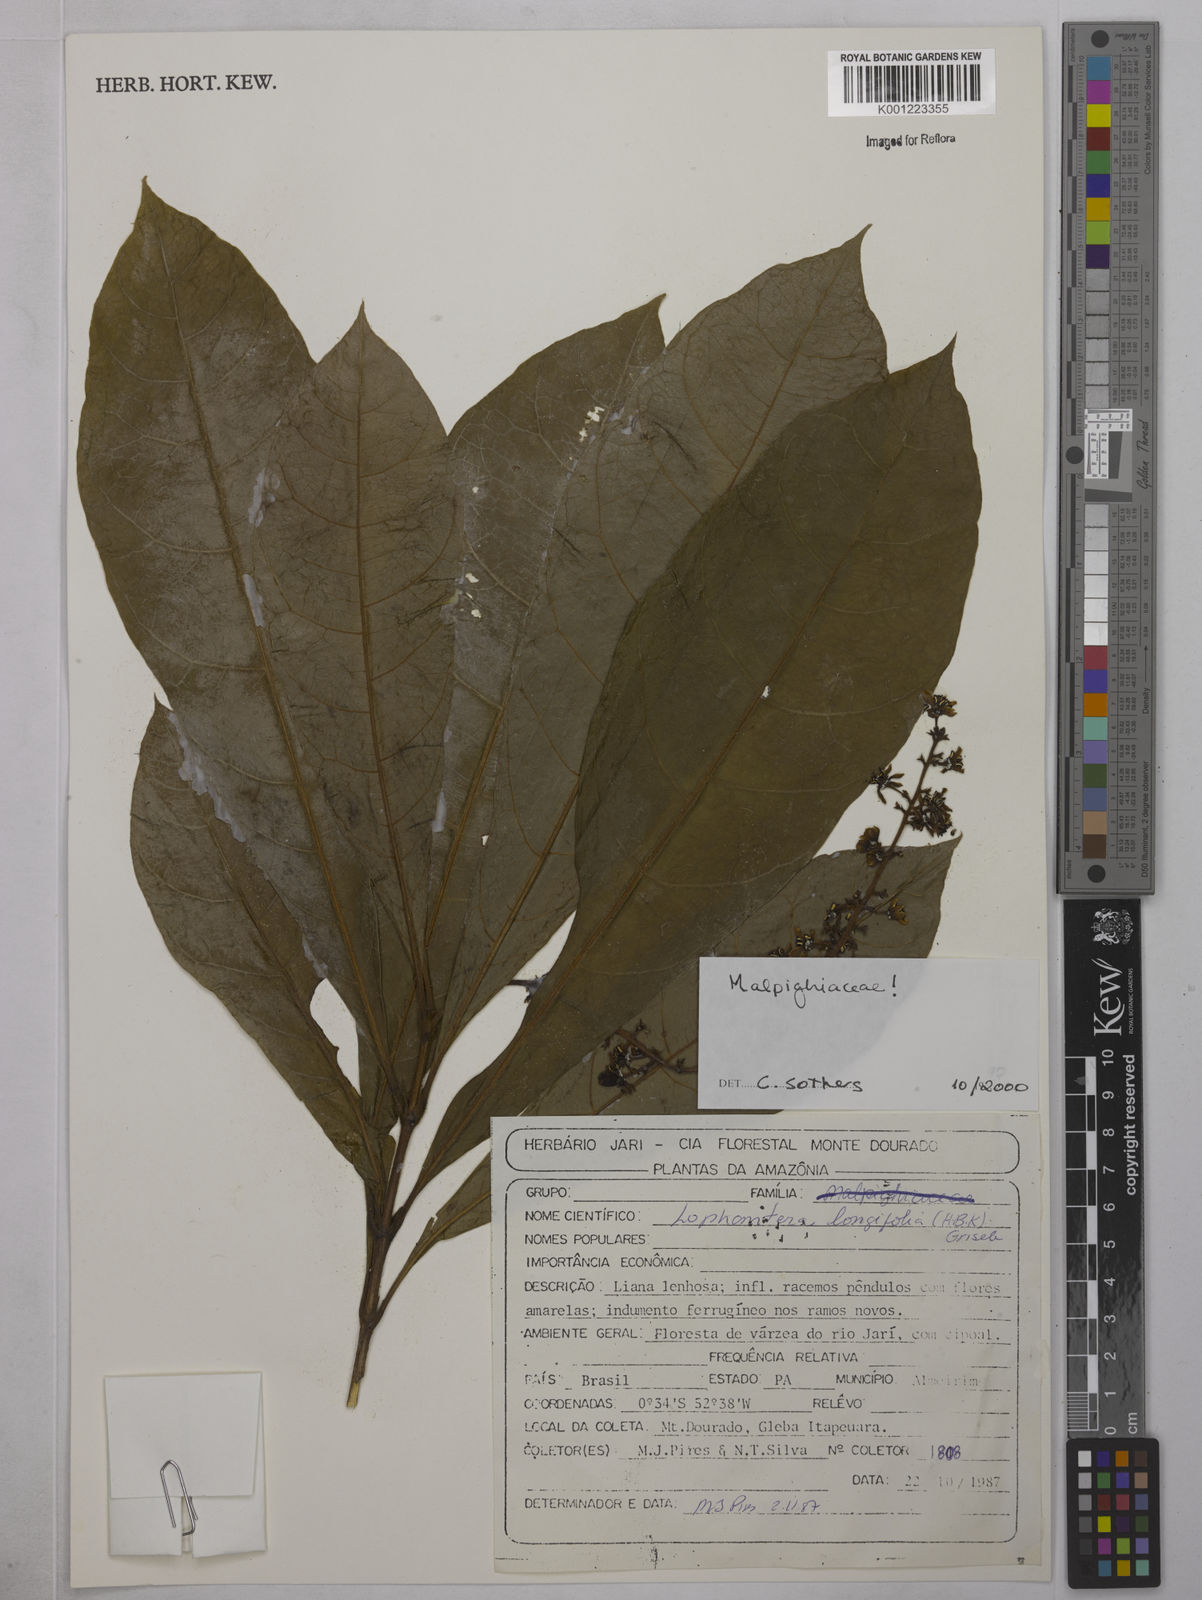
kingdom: Plantae
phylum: Tracheophyta
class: Magnoliopsida
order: Malpighiales
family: Malpighiaceae
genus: Lophanthera
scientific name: Lophanthera longifolia
